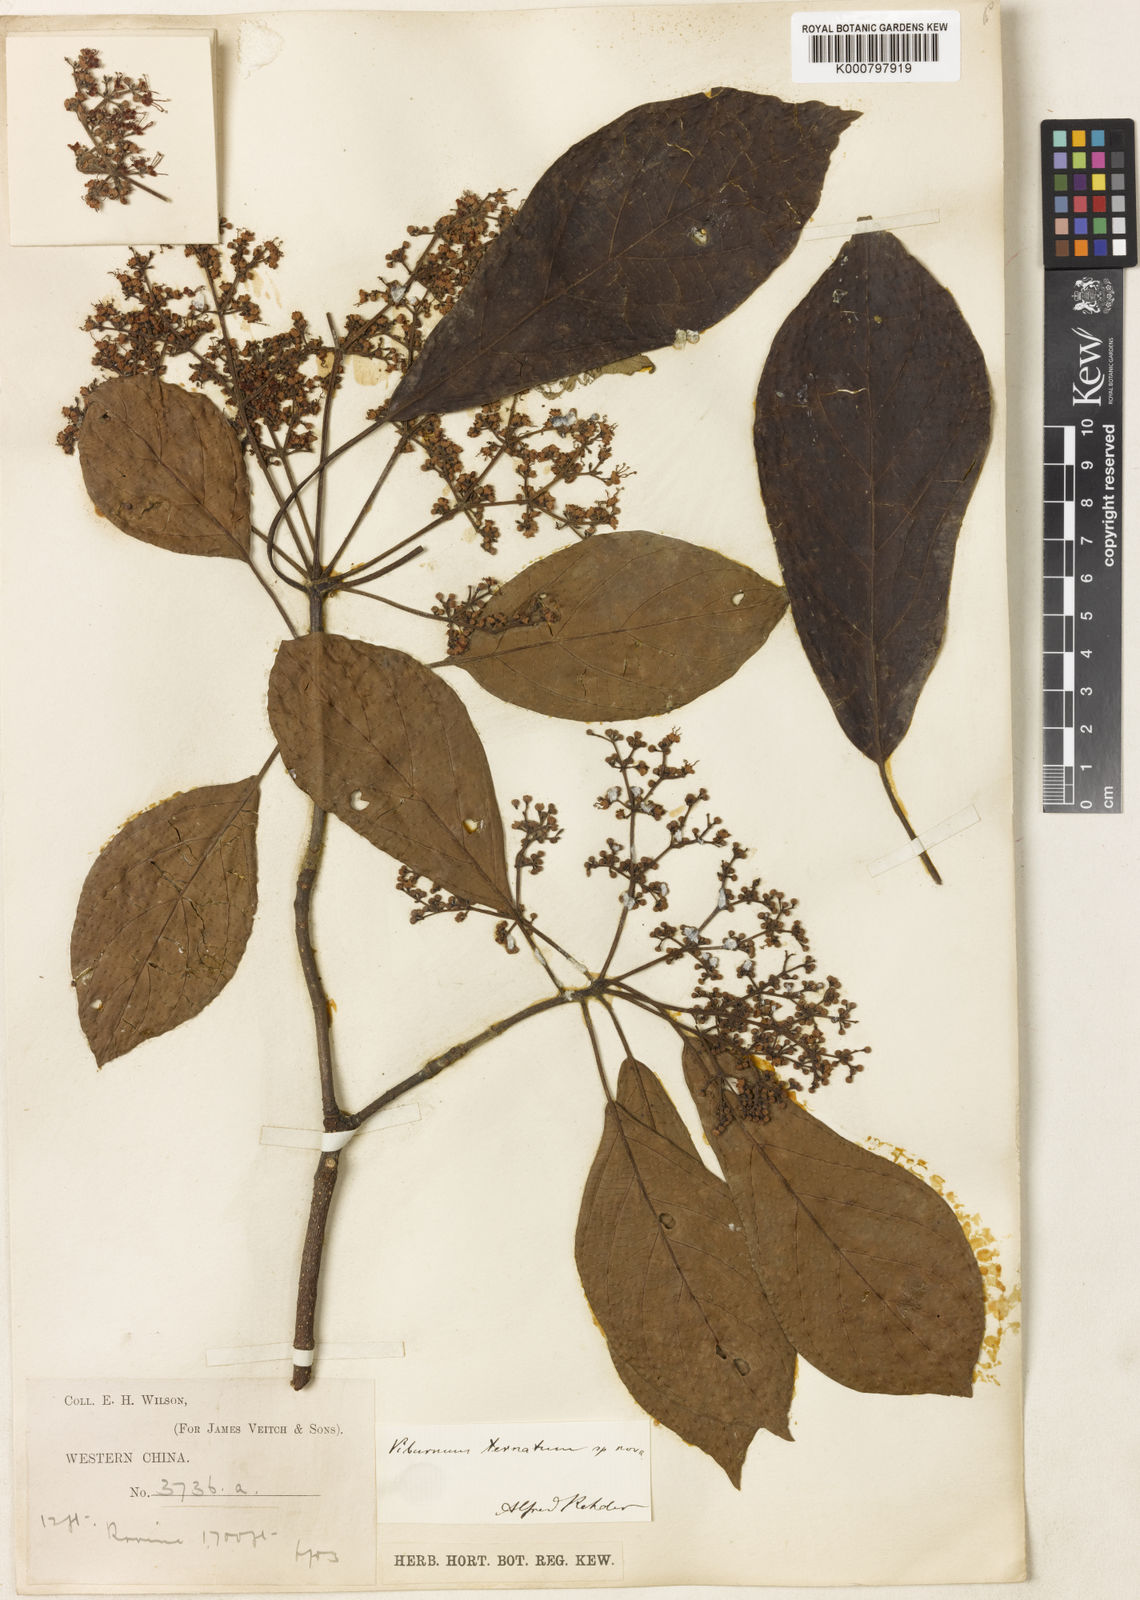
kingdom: Plantae
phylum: Tracheophyta
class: Magnoliopsida
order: Dipsacales
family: Viburnaceae
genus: Viburnum
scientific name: Viburnum ternatum
